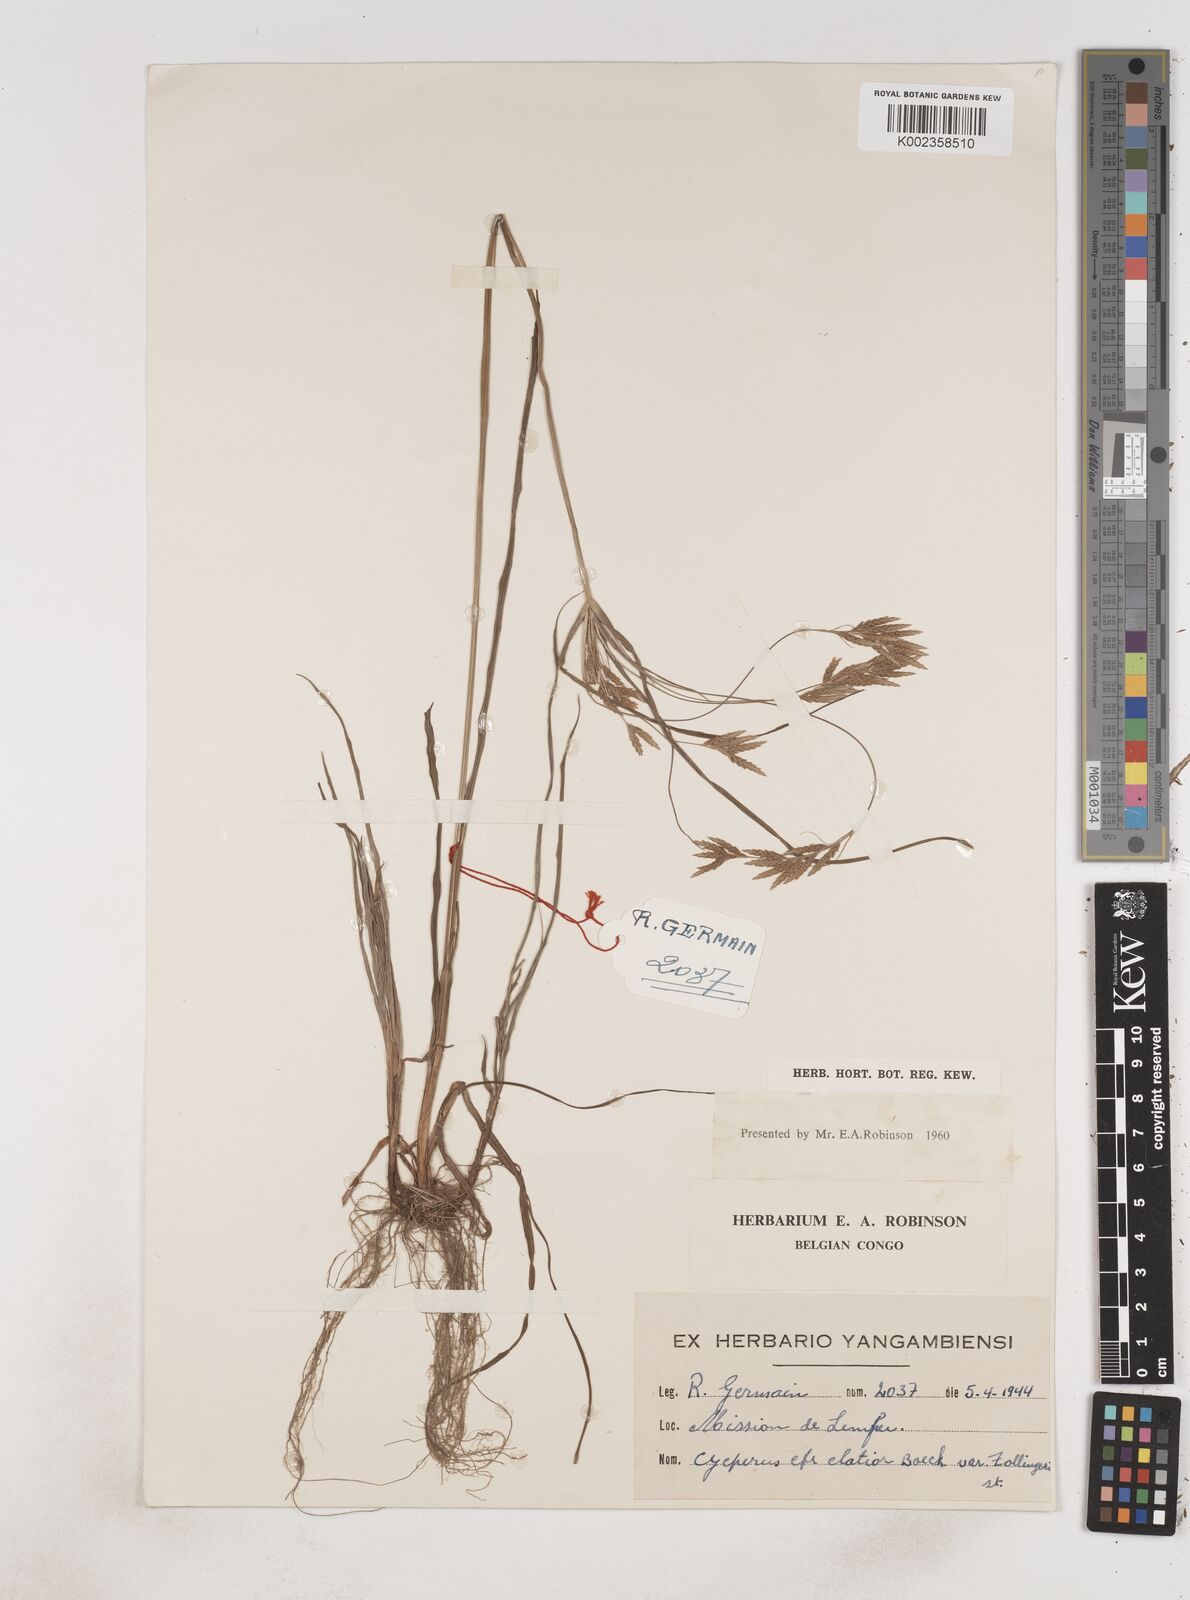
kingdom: Plantae
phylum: Tracheophyta
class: Liliopsida
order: Poales
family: Cyperaceae
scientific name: Cyperaceae
